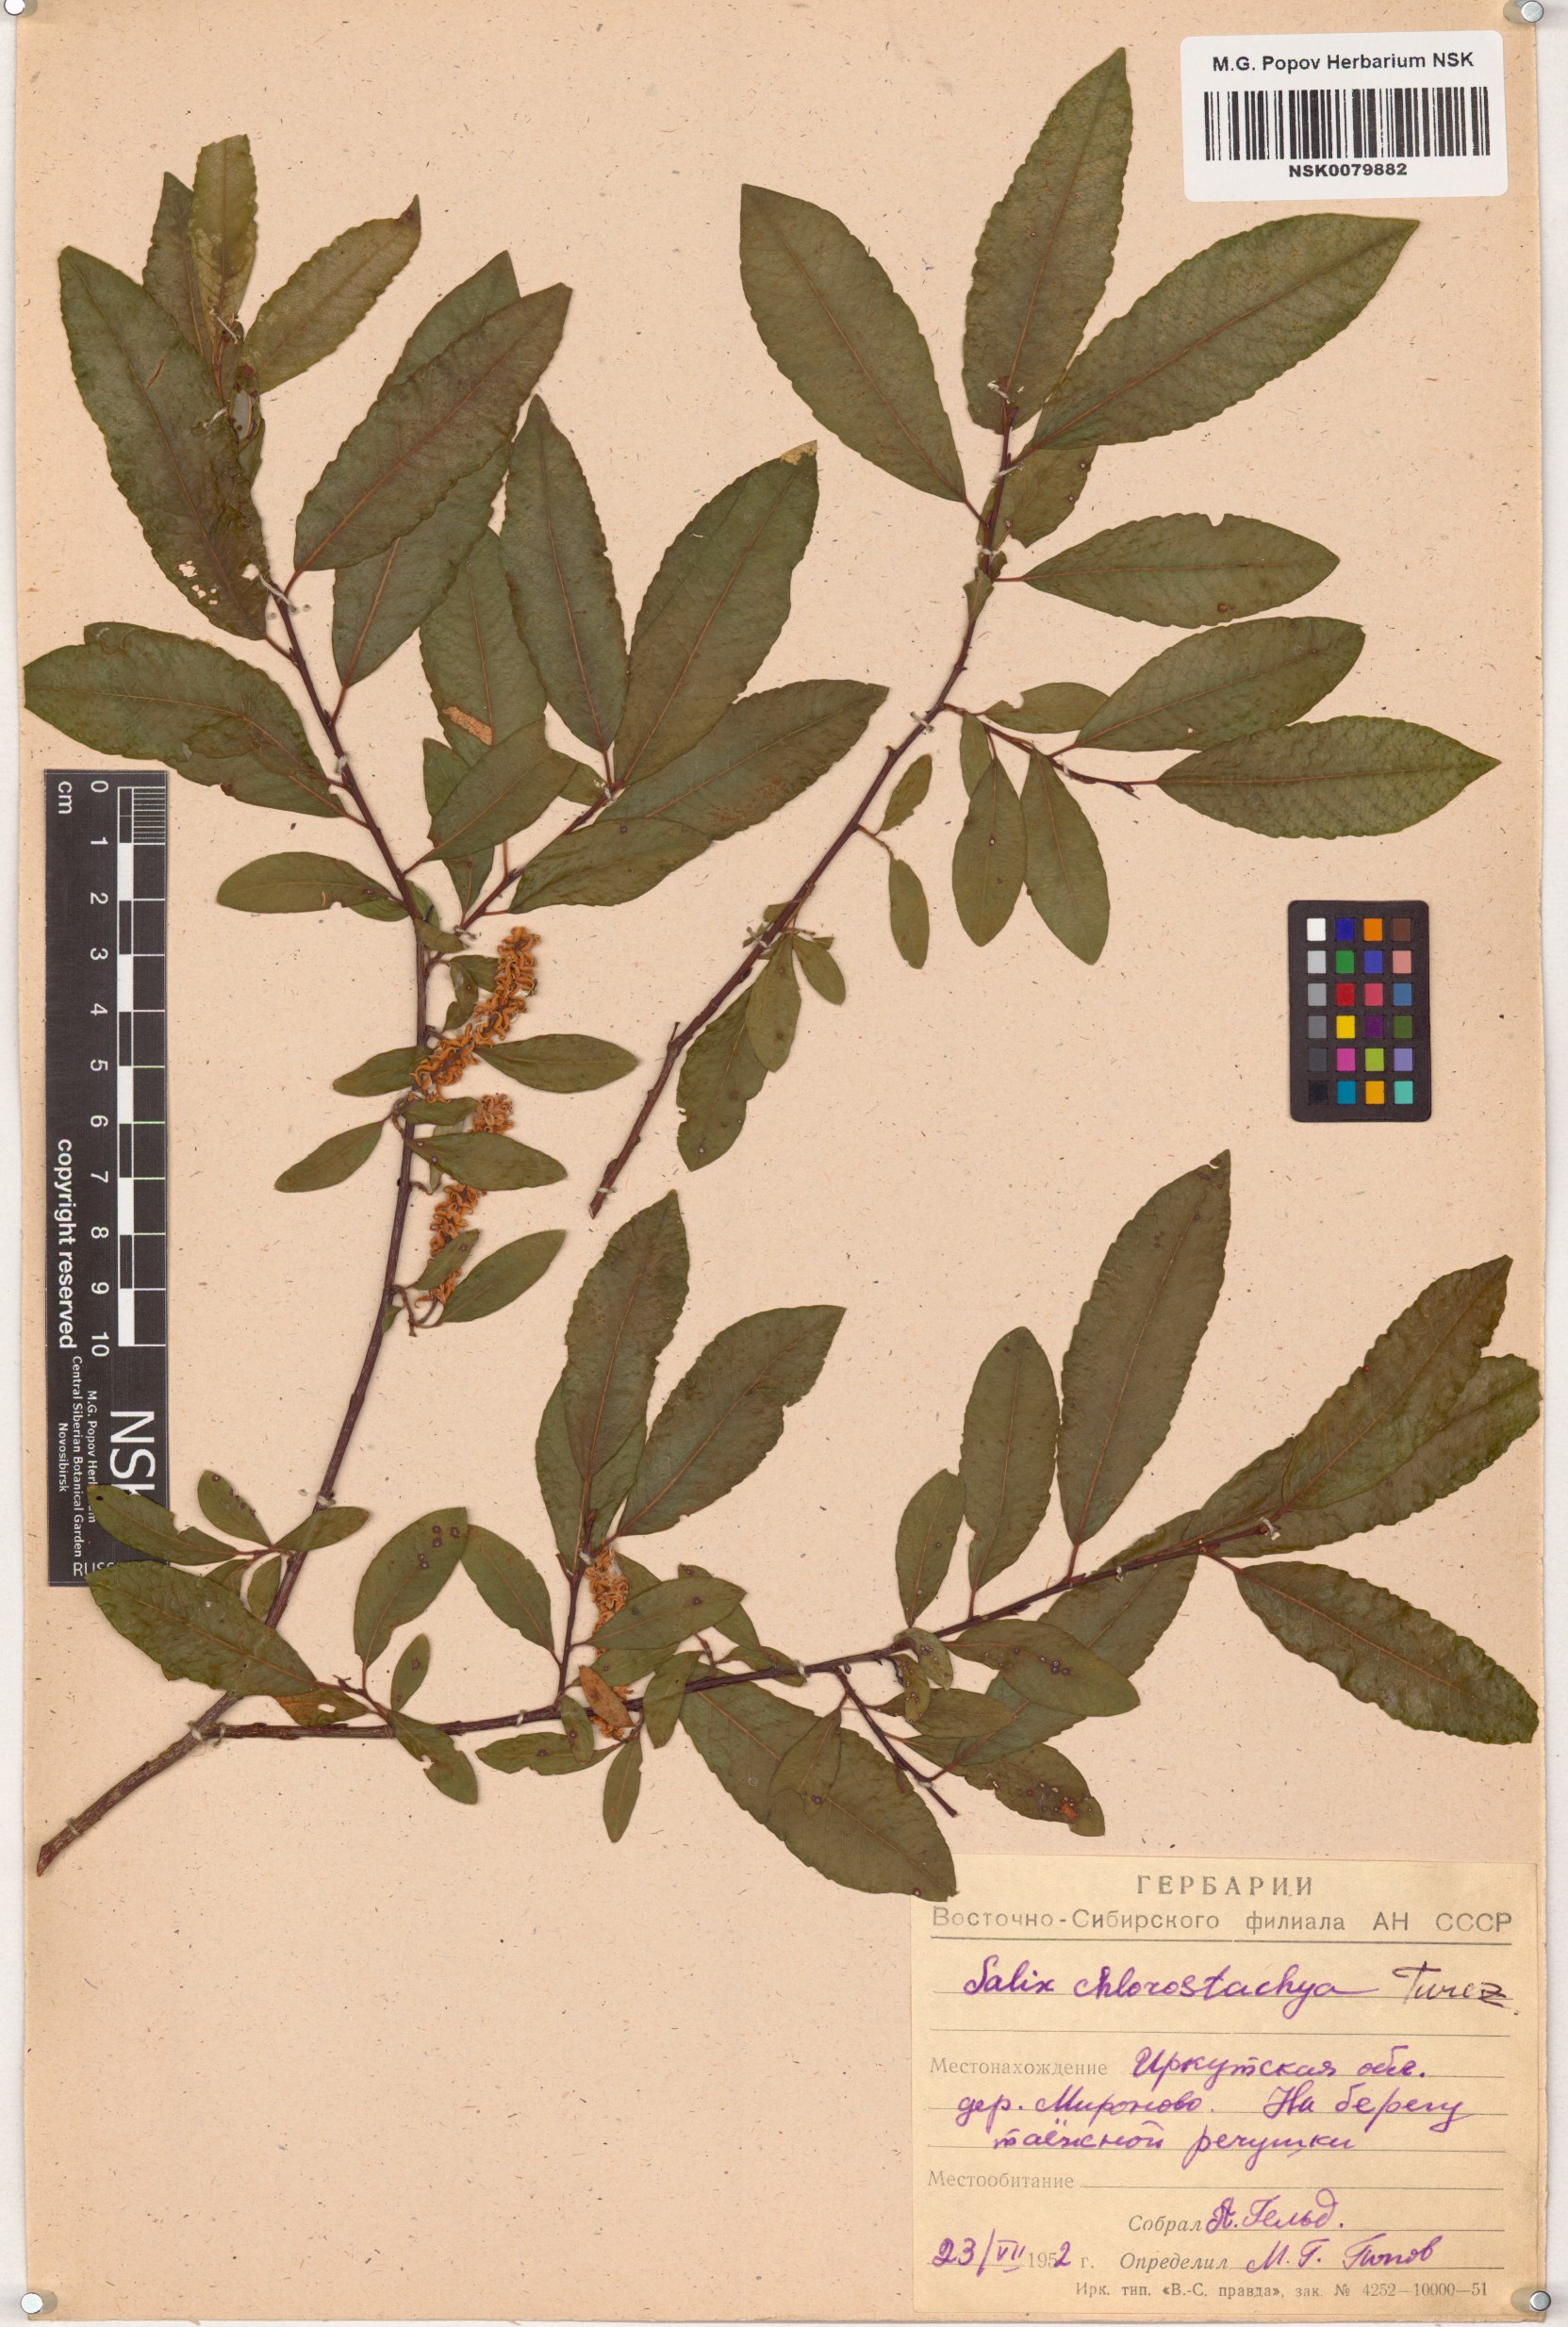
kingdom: Plantae
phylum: Tracheophyta
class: Magnoliopsida
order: Malpighiales
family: Salicaceae
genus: Salix
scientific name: Salix rhamnifolia
